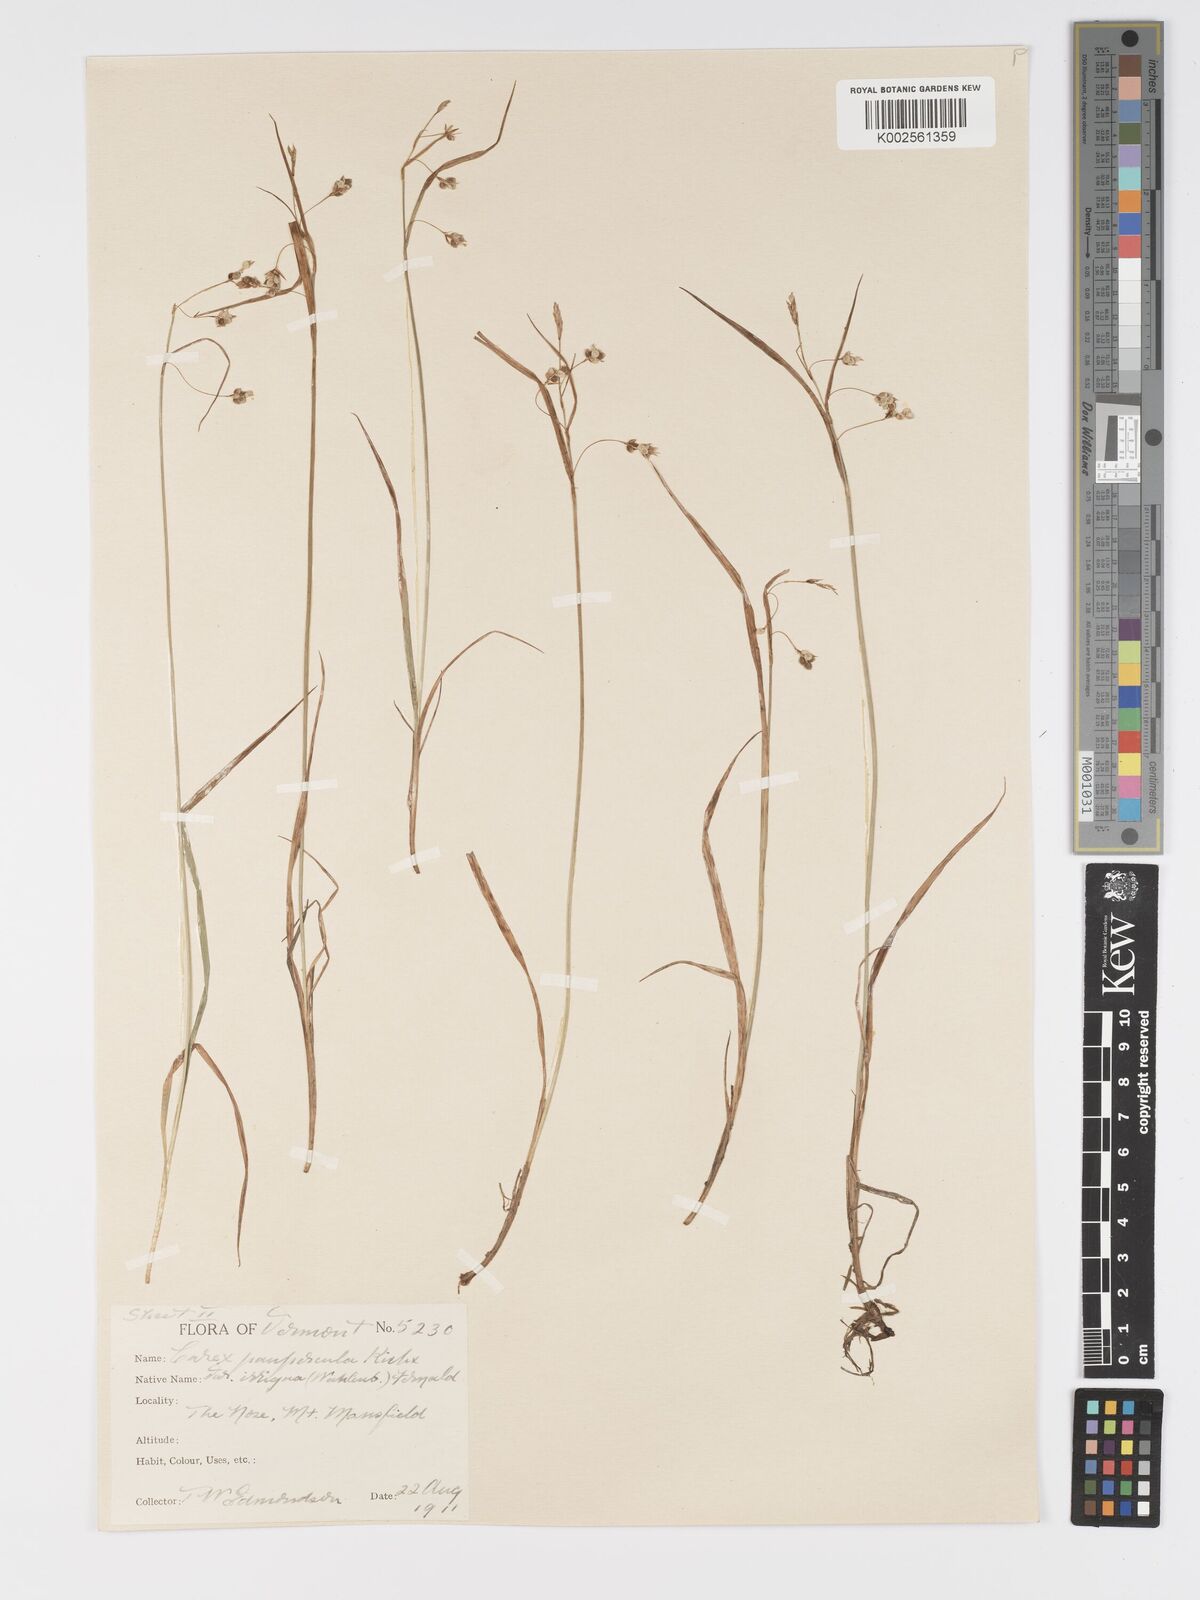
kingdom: Plantae
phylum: Tracheophyta
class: Liliopsida
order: Poales
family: Cyperaceae
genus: Carex
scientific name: Carex magellanica
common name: Bog sedge
